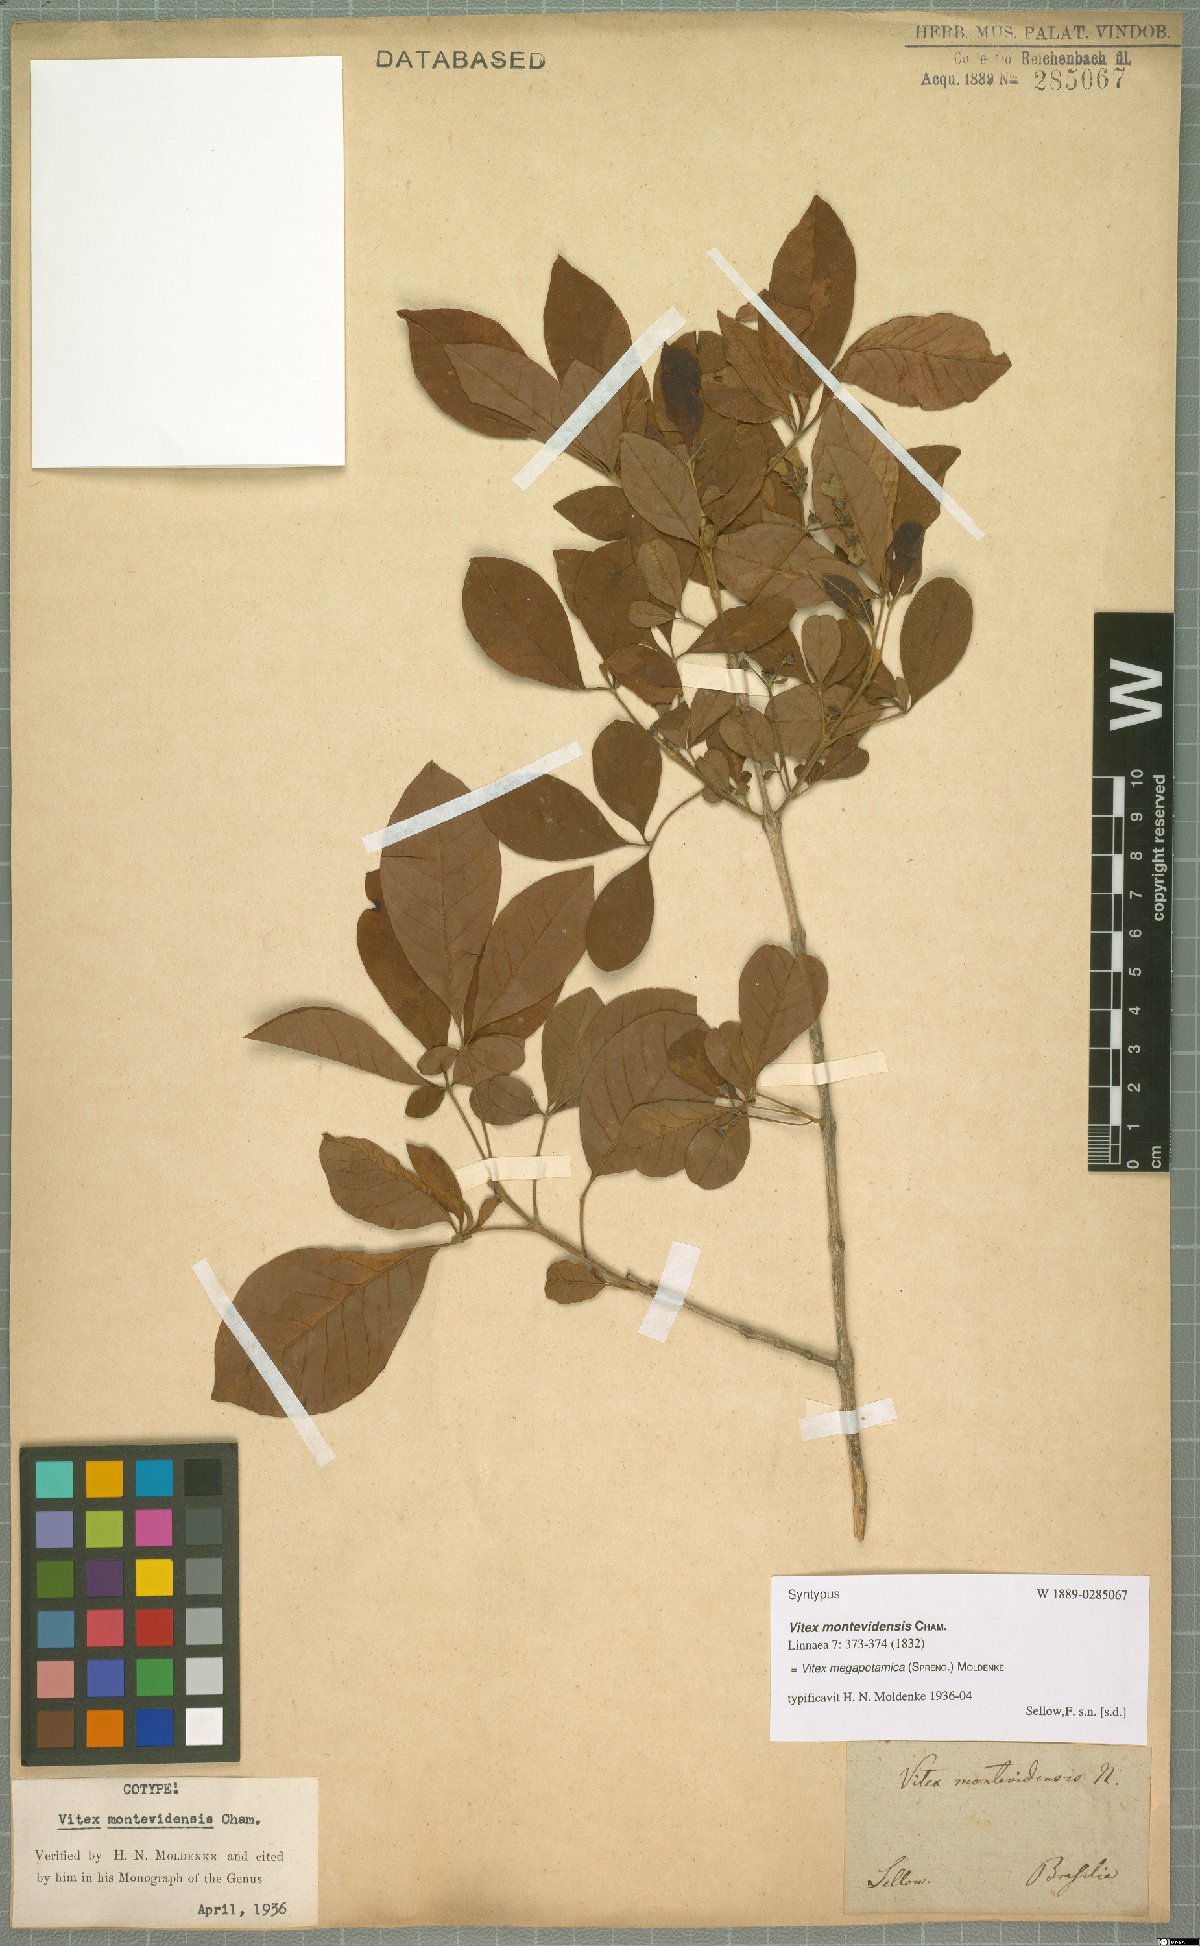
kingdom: Plantae
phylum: Tracheophyta
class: Magnoliopsida
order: Lamiales
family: Lamiaceae
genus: Vitex
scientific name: Vitex megapotamica
